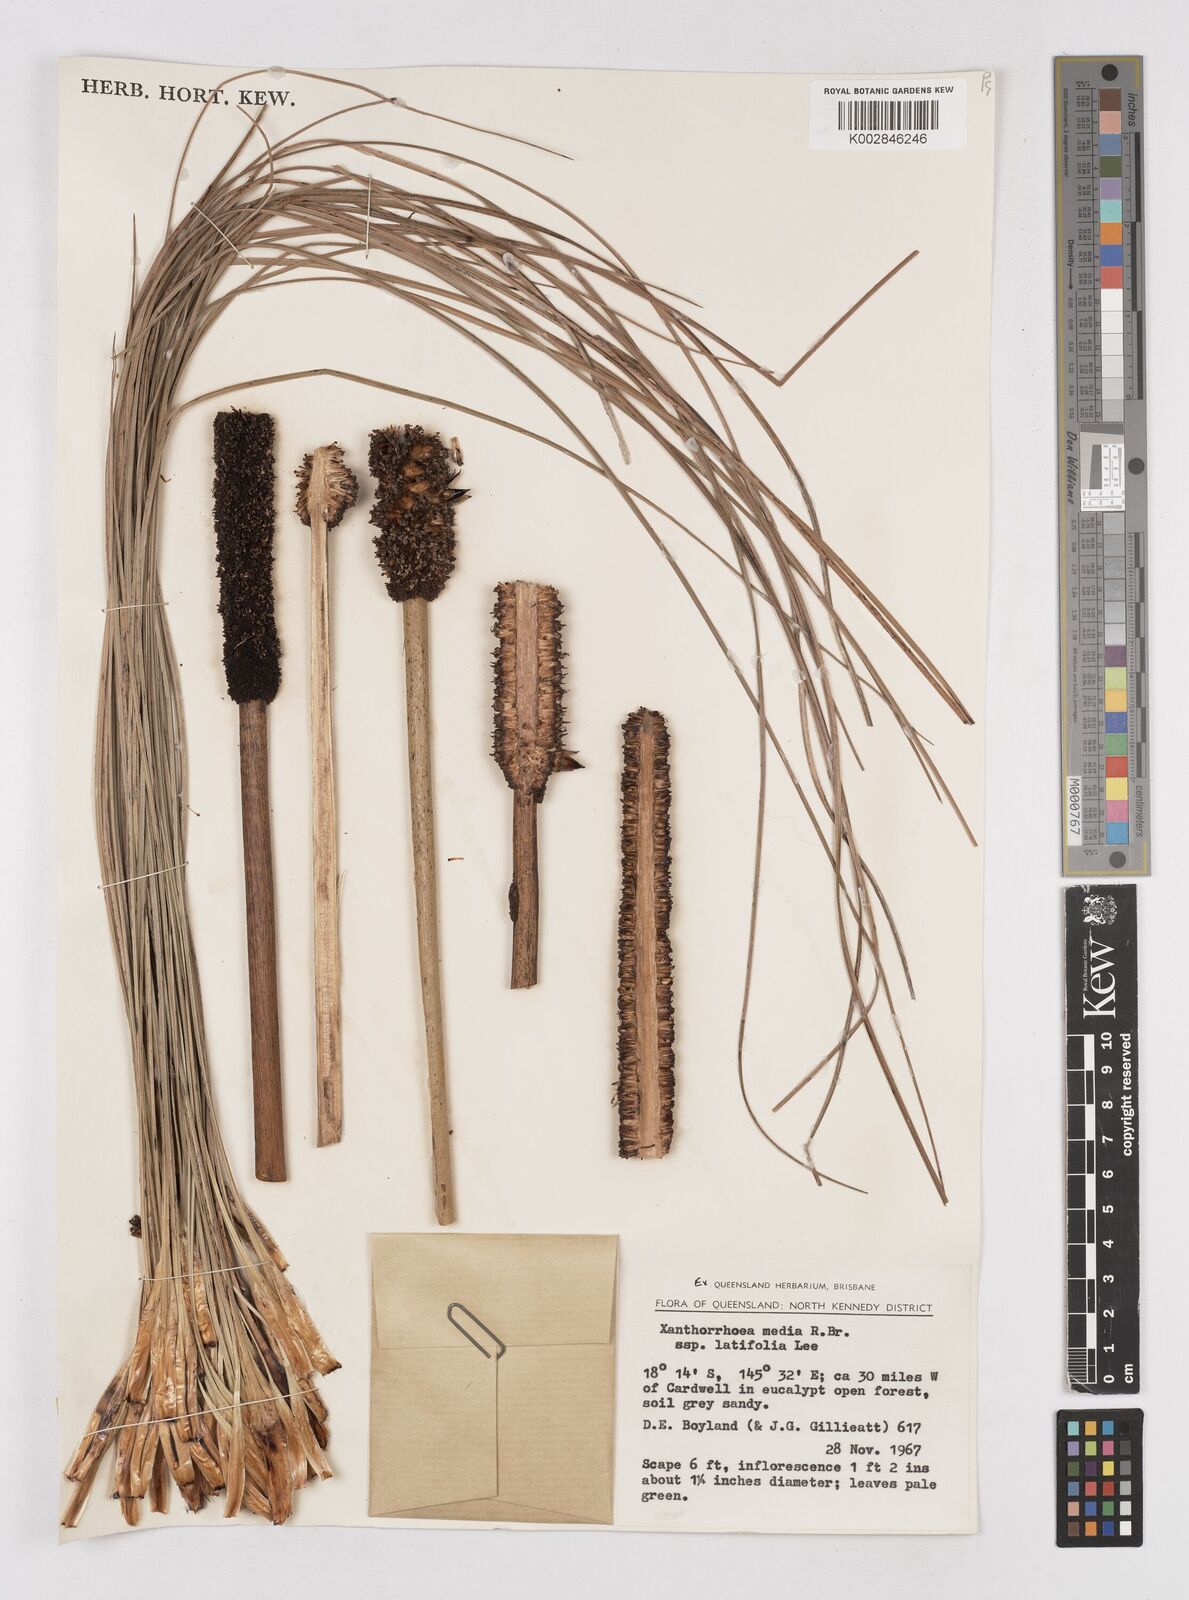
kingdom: Plantae
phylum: Tracheophyta
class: Liliopsida
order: Asparagales
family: Asphodelaceae
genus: Xanthorrhoea
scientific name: Xanthorrhoea latifolia
